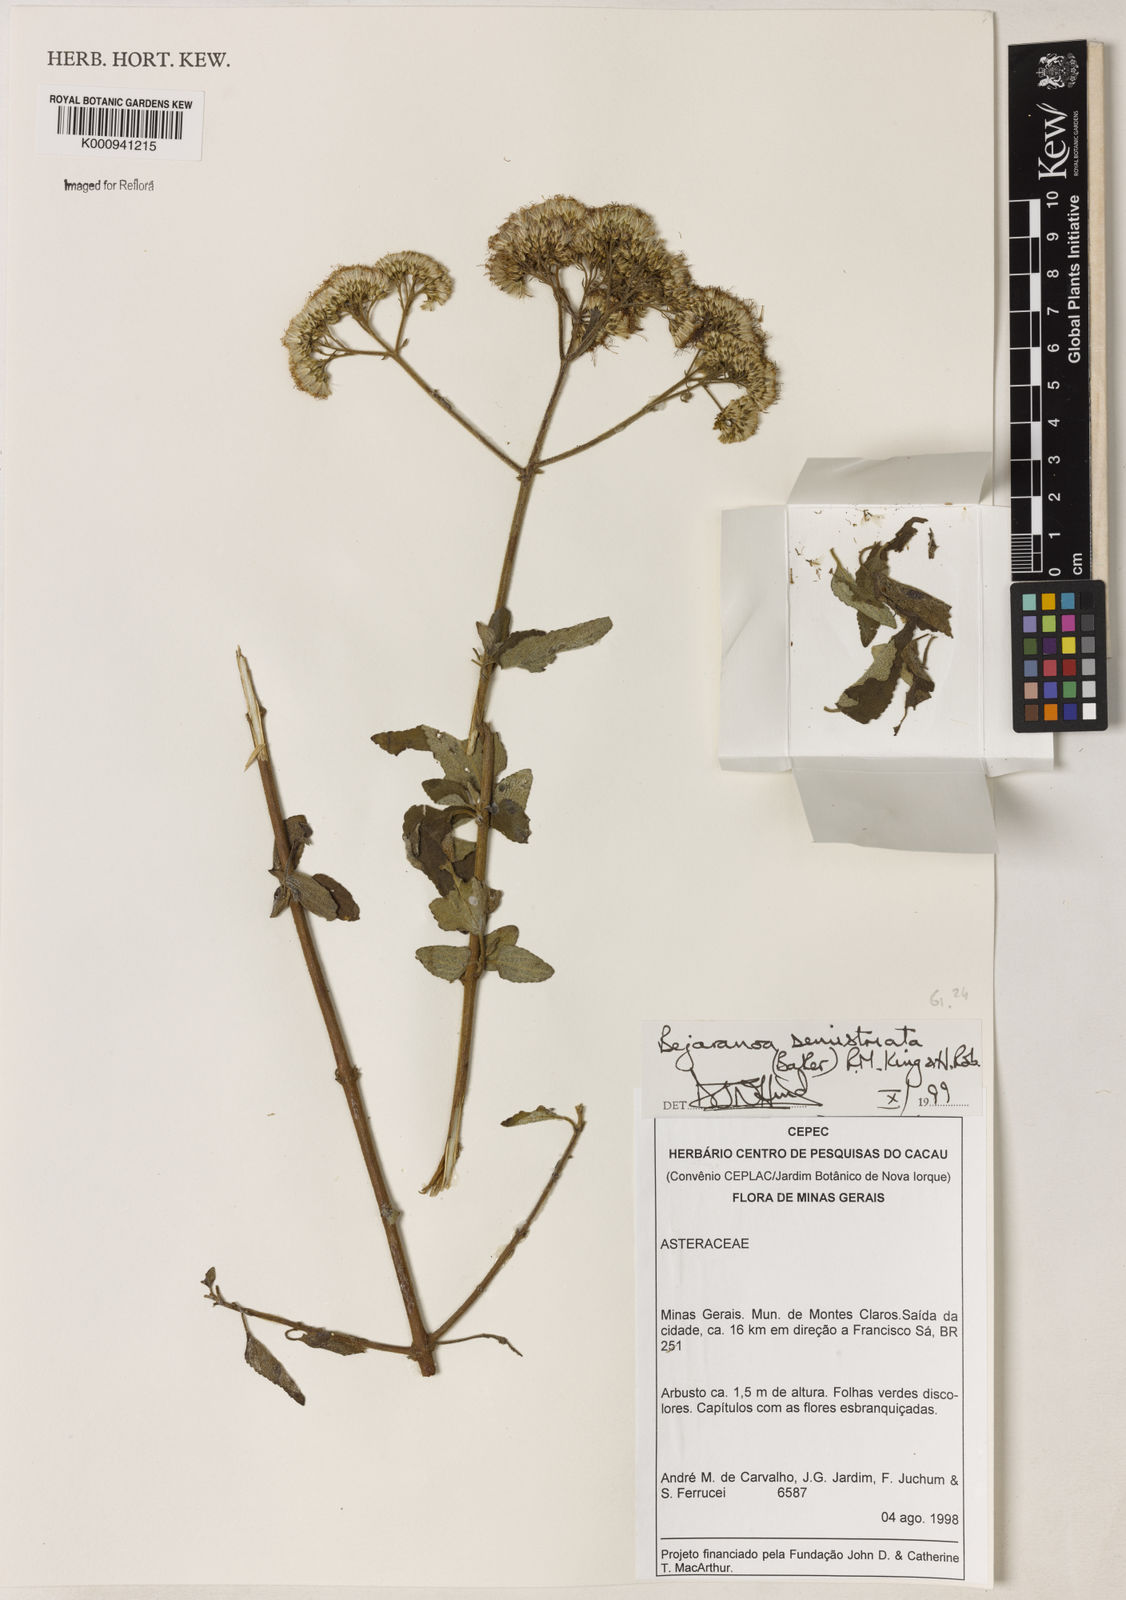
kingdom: Plantae
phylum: Tracheophyta
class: Magnoliopsida
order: Asterales
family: Asteraceae
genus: Bejaranoa
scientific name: Bejaranoa semistriata
